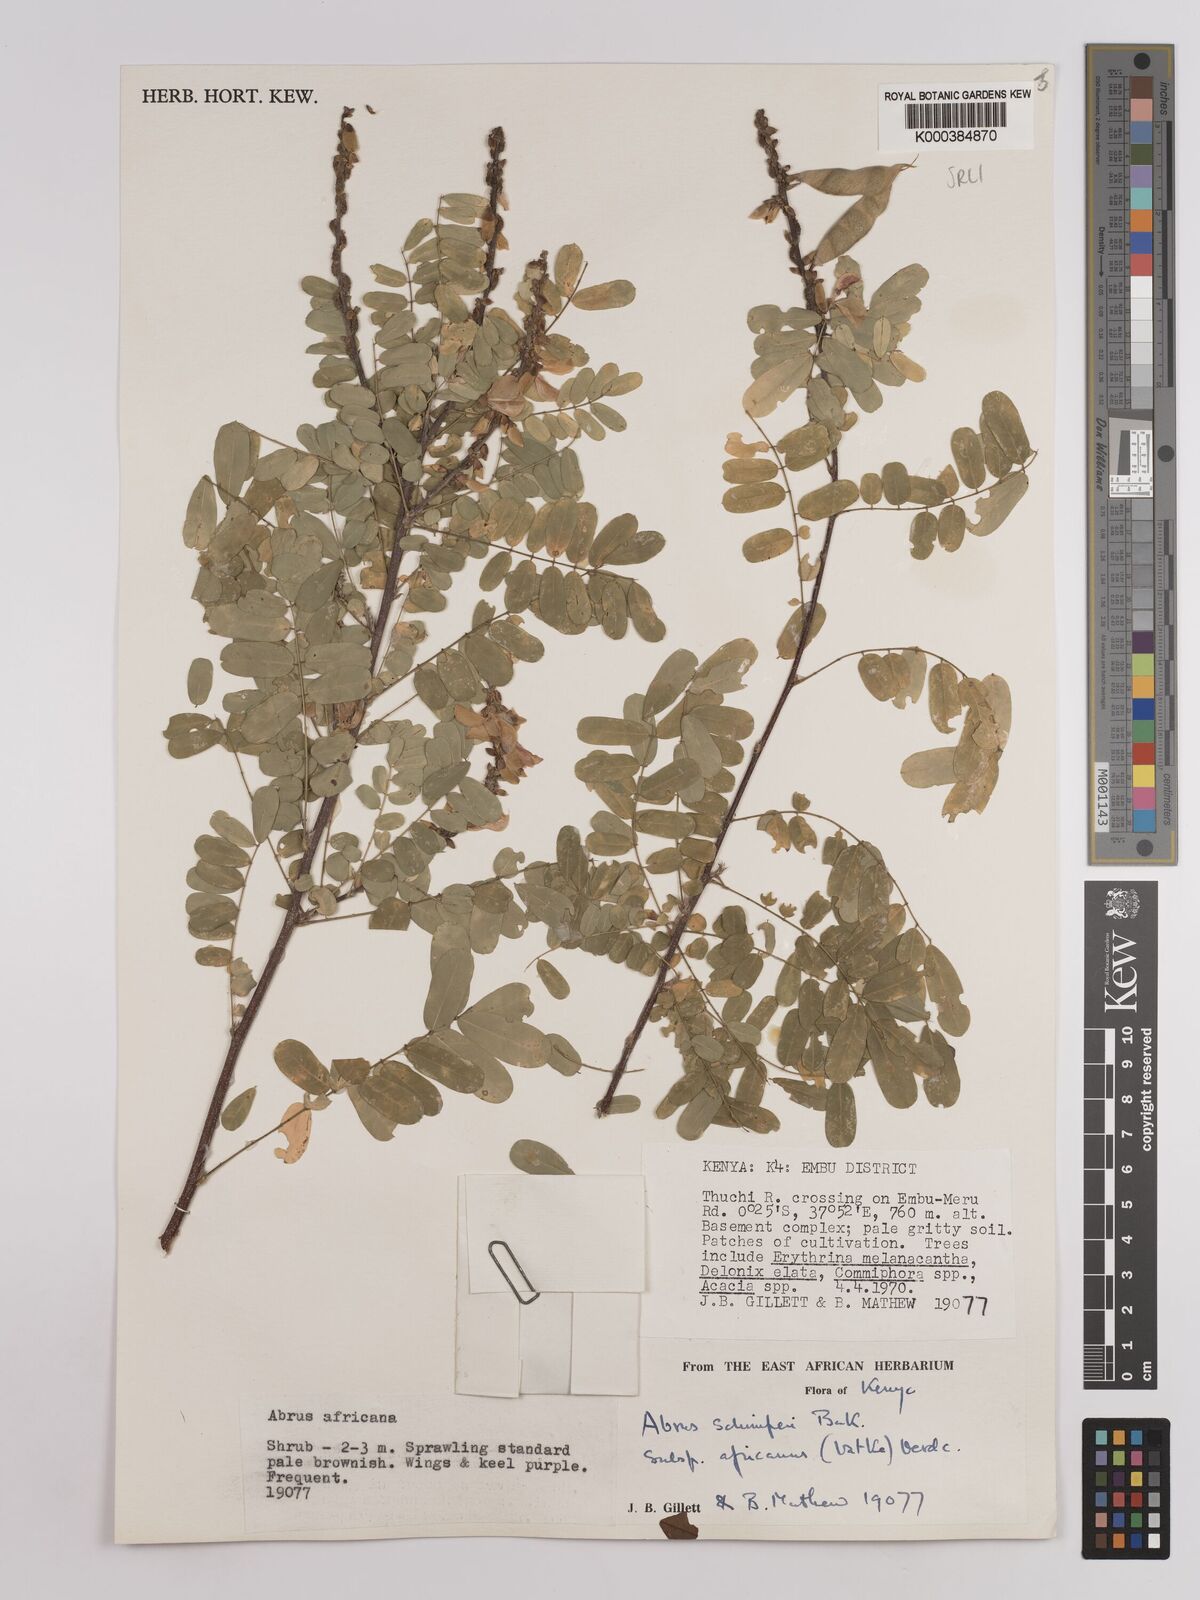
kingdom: Plantae
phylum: Tracheophyta
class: Magnoliopsida
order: Fabales
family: Fabaceae
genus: Abrus
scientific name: Abrus fruticulosus
